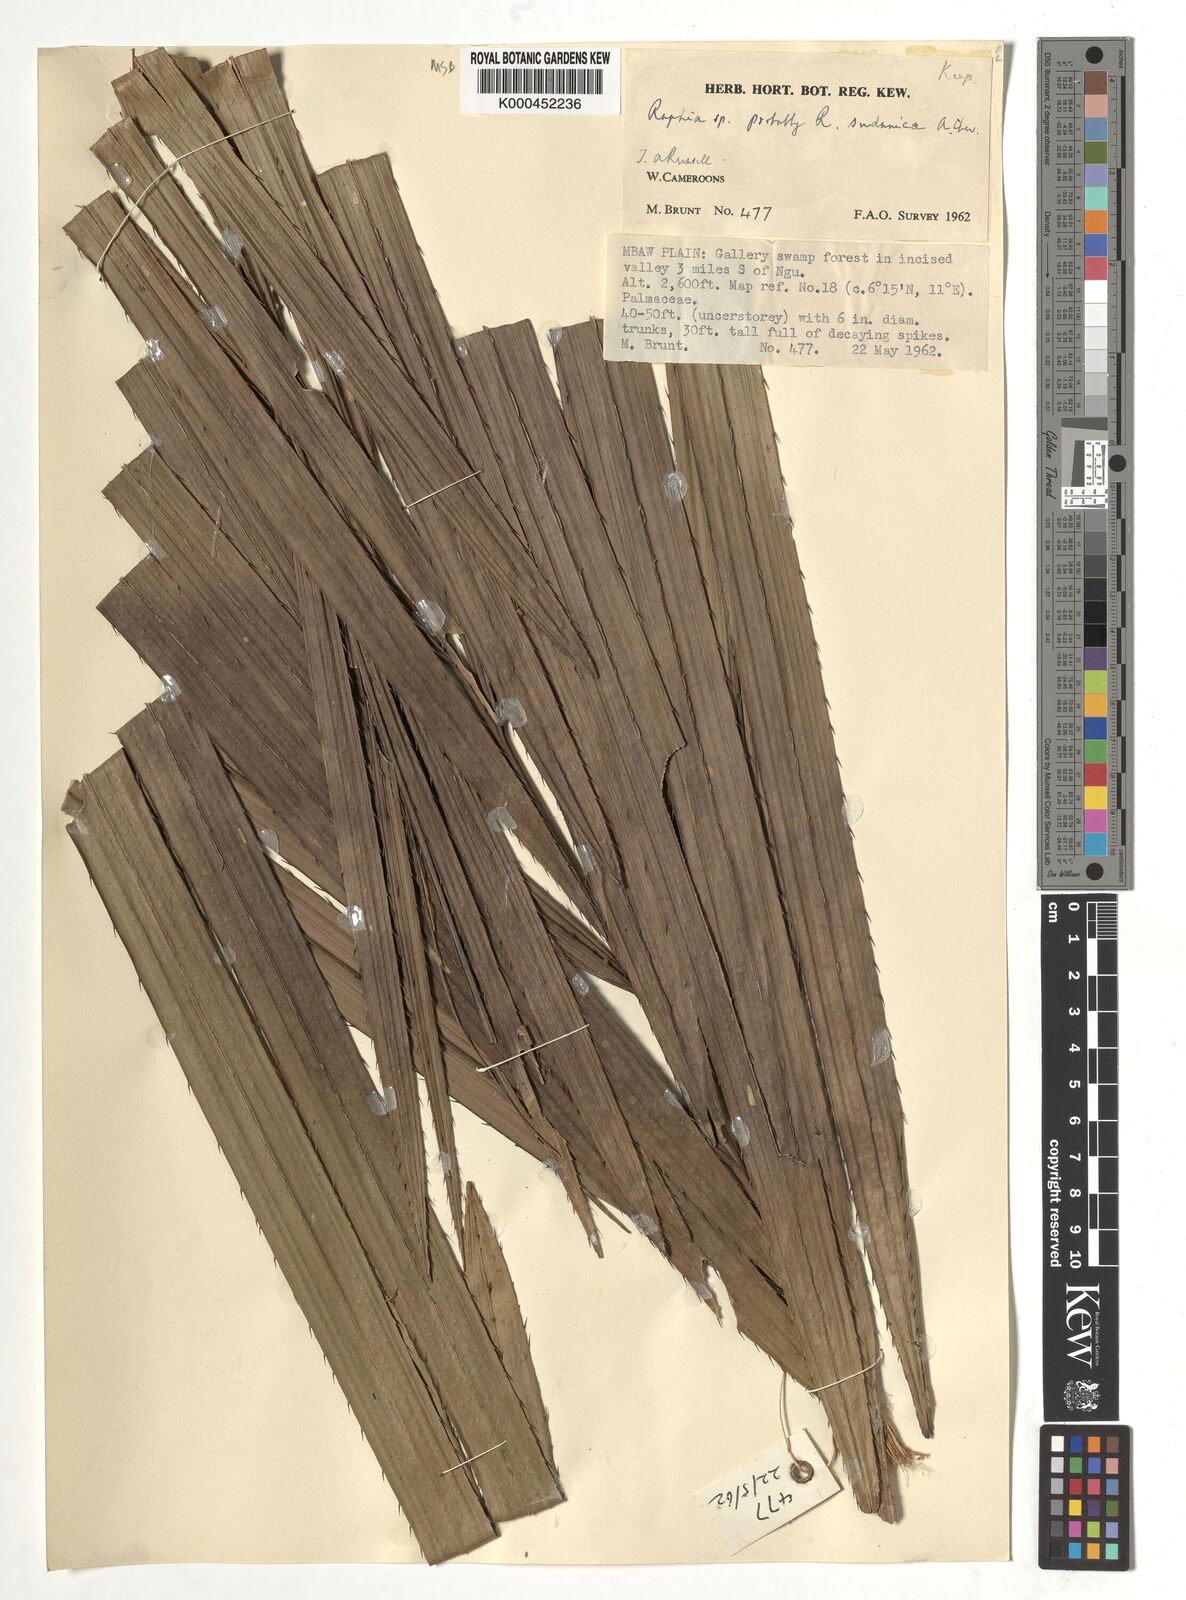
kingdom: Plantae
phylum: Tracheophyta
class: Liliopsida
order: Arecales
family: Arecaceae
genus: Raphia
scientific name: Raphia sudanica
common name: Northern raphia
